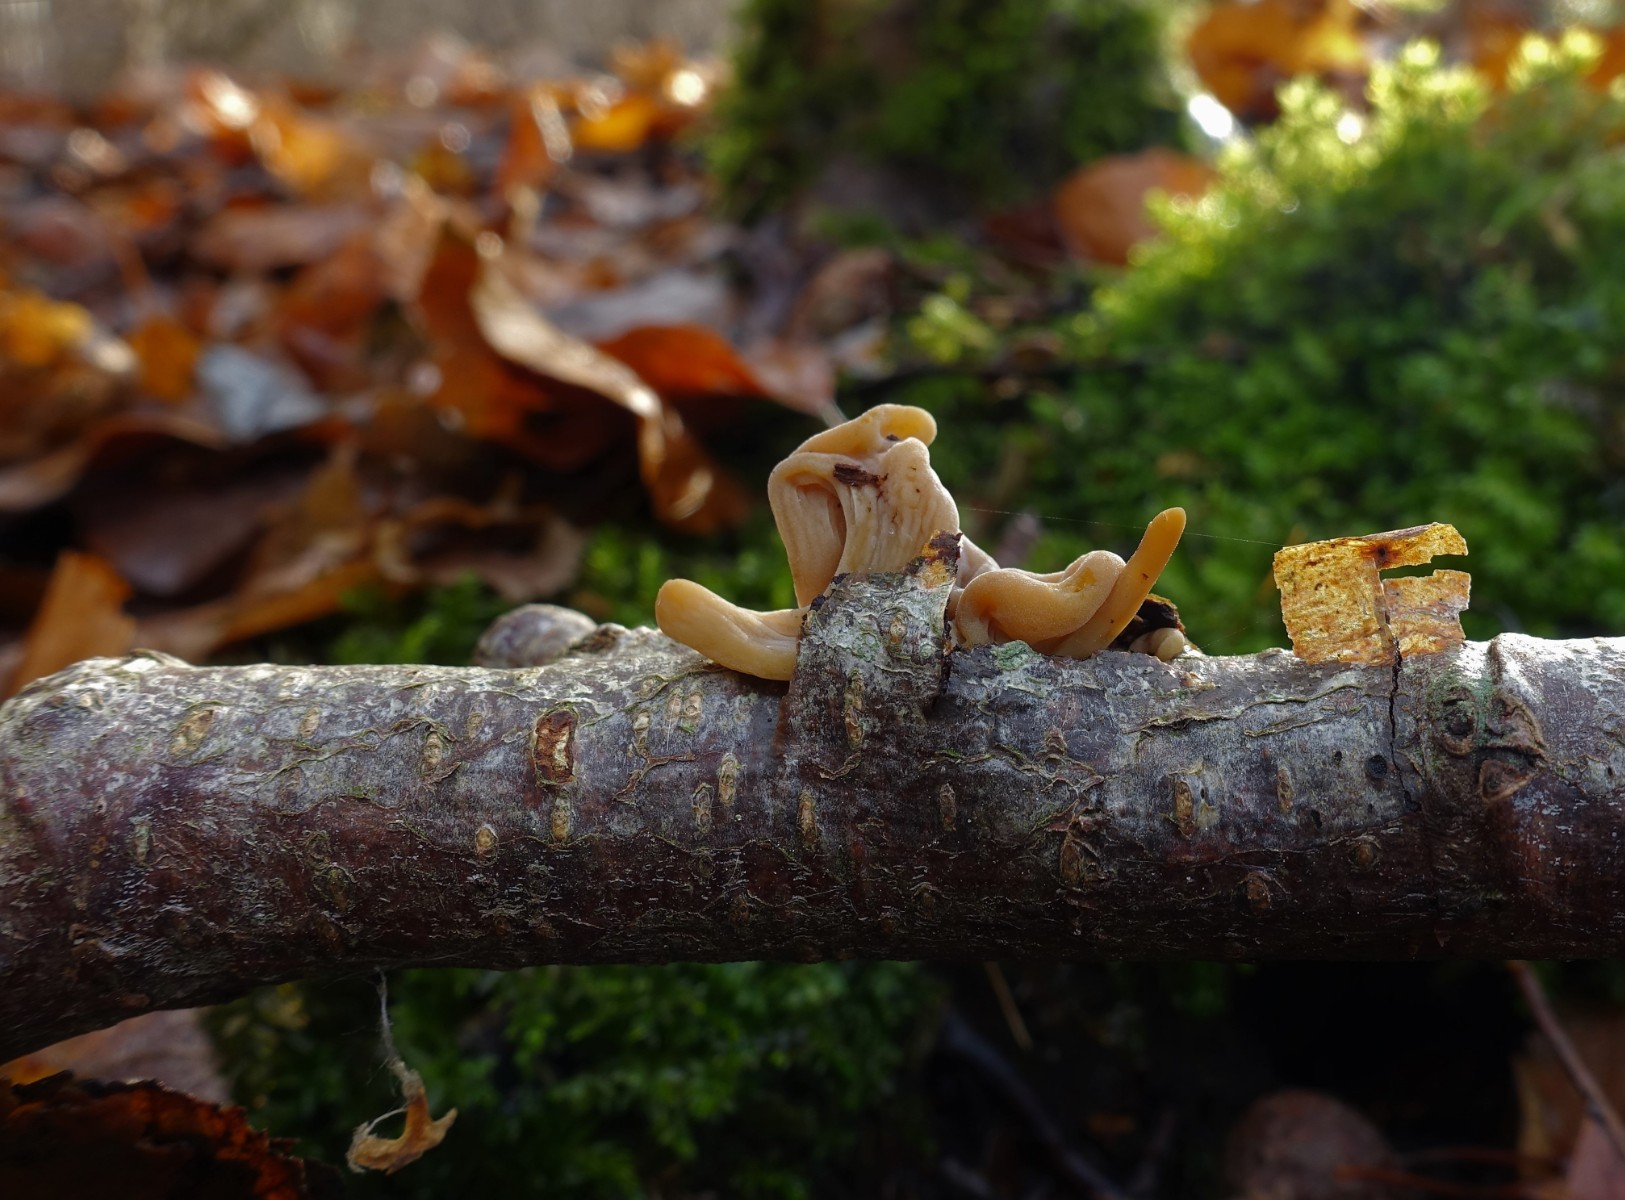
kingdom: Fungi
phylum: Basidiomycota
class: Agaricomycetes
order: Agaricales
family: Typhulaceae
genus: Typhula
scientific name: Typhula contorta
